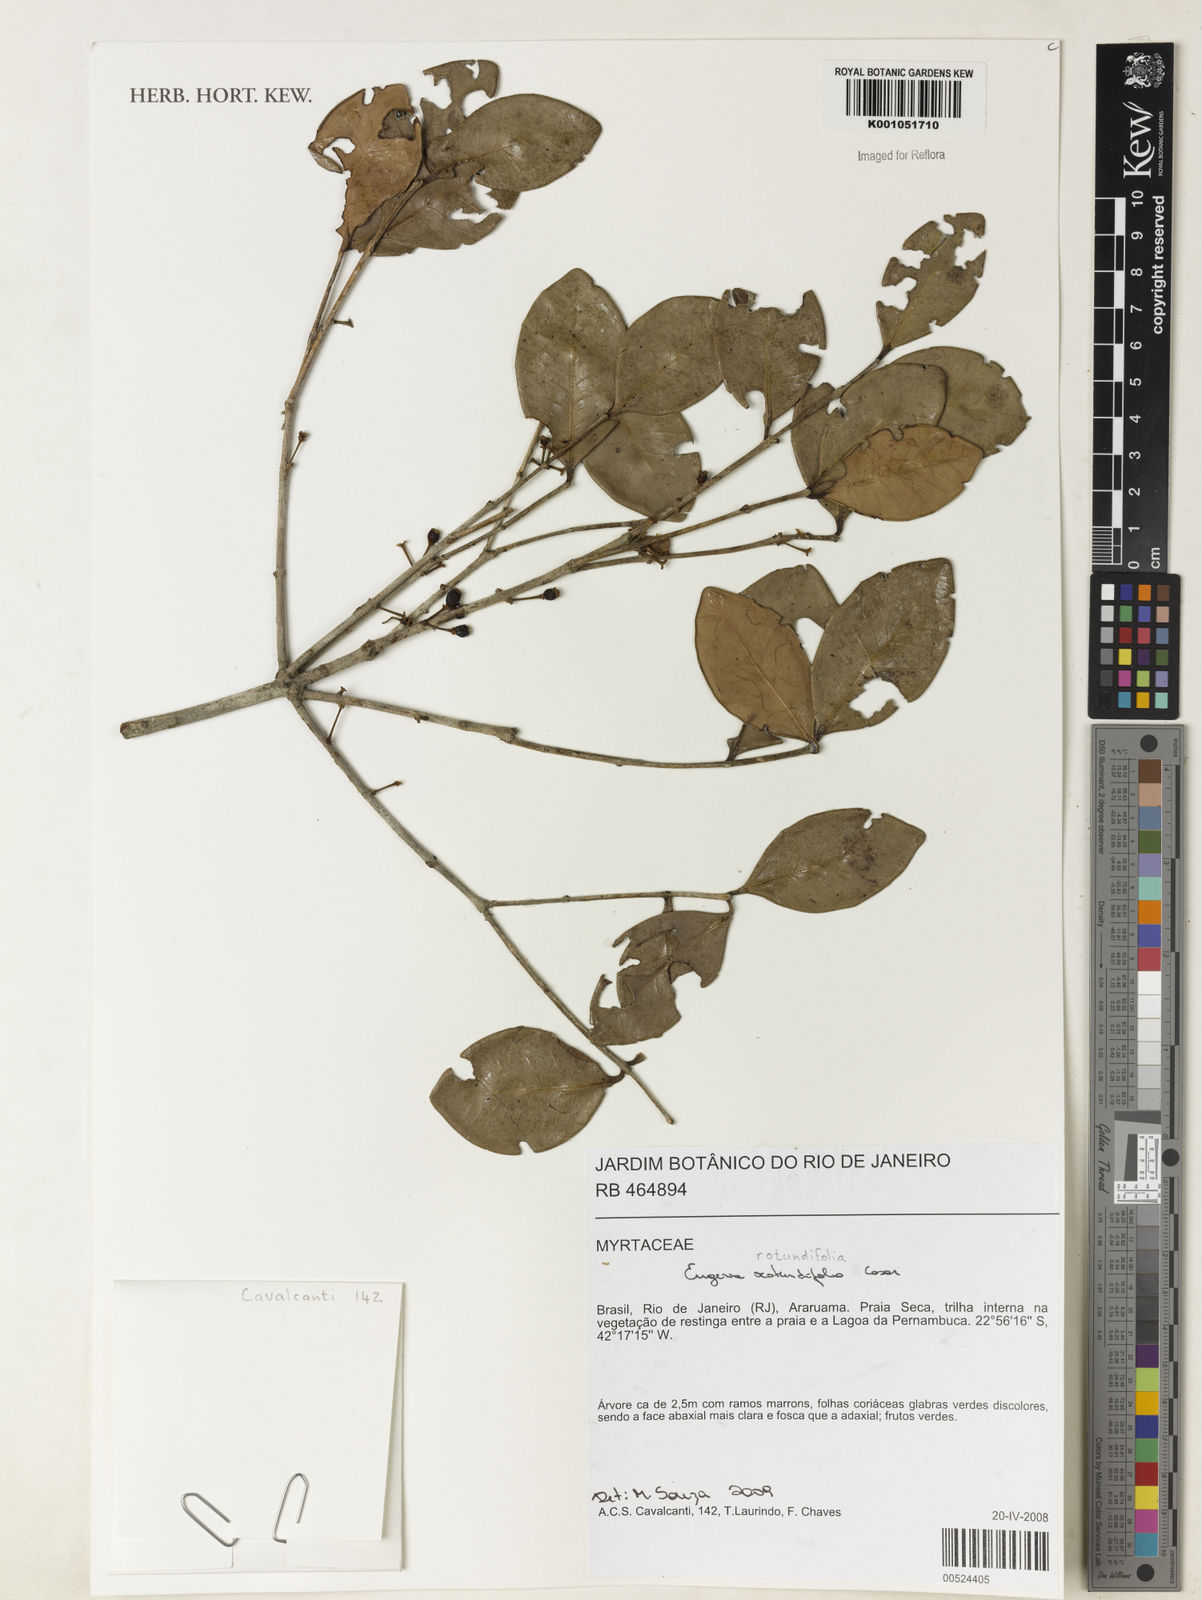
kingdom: Plantae
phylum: Tracheophyta
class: Magnoliopsida
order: Myrtales
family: Myrtaceae
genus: Eugenia
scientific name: Eugenia casarettoana
